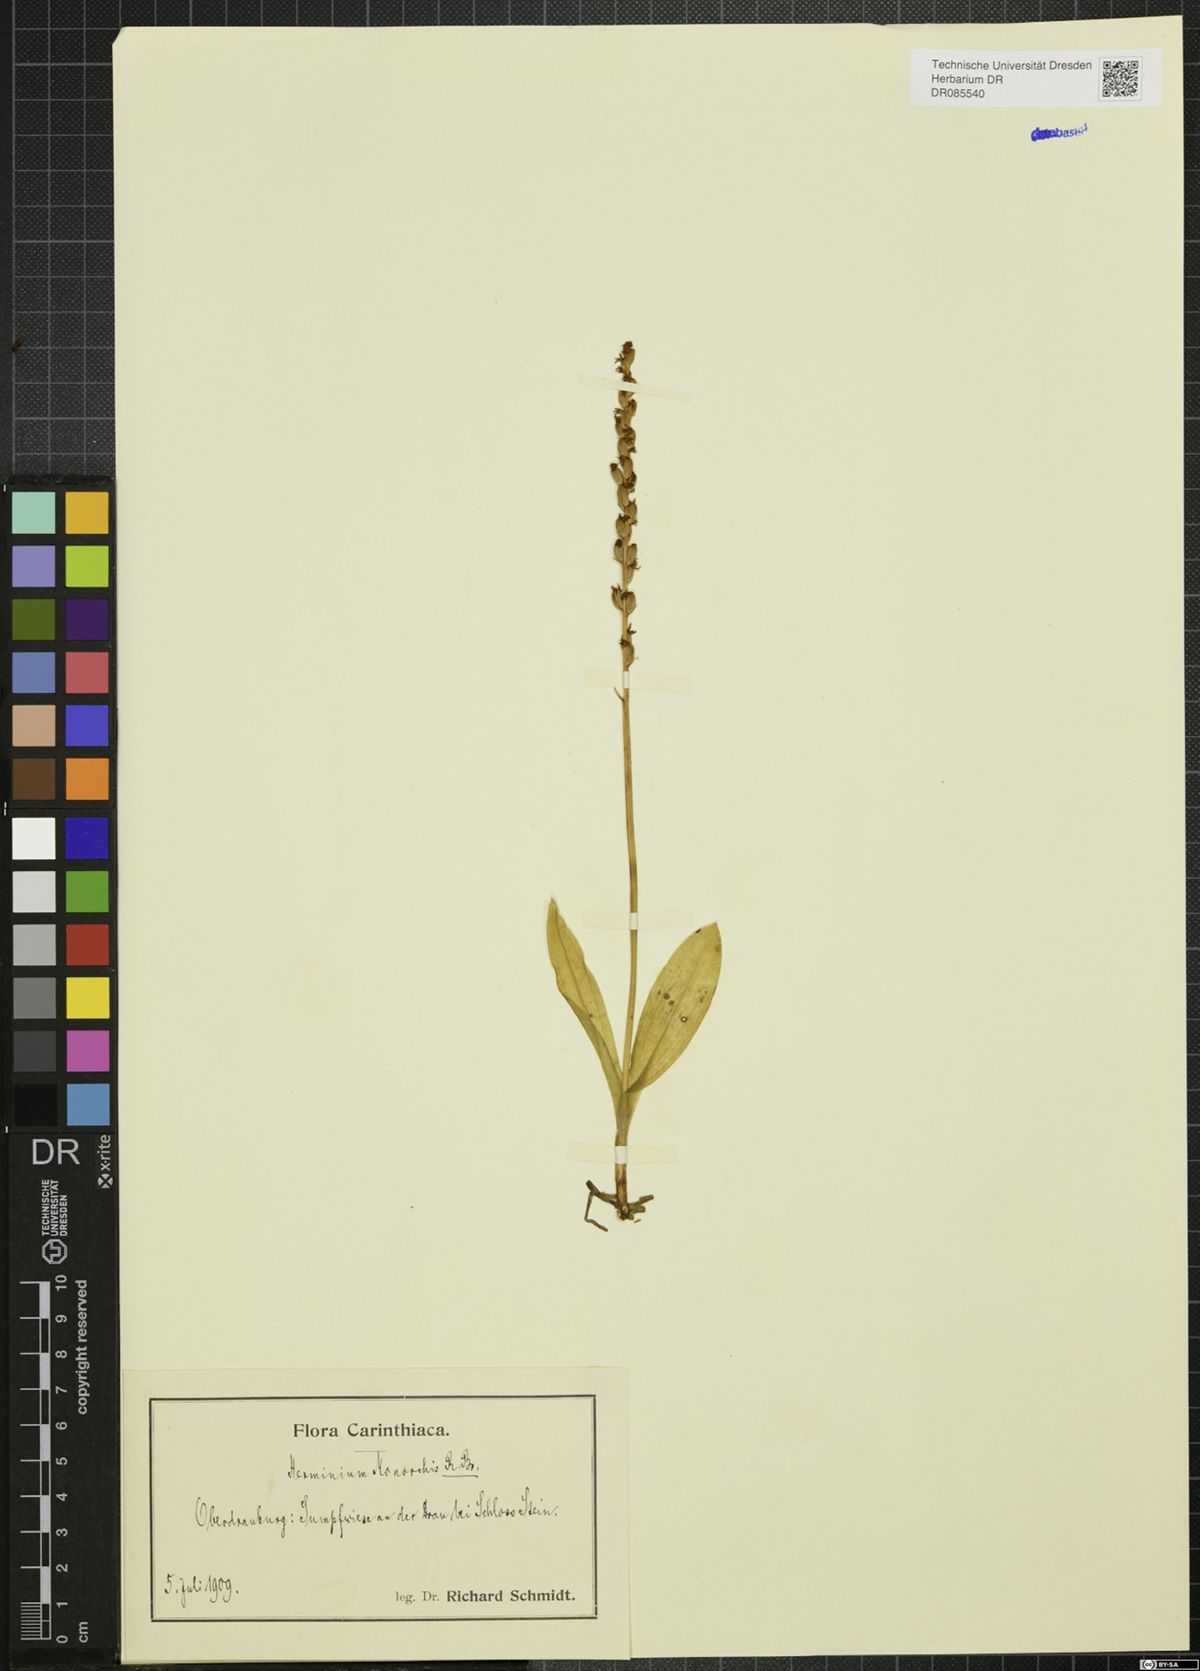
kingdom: Plantae
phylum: Tracheophyta
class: Liliopsida
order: Asparagales
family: Orchidaceae
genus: Herminium
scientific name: Herminium monorchis
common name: Musk orchid
